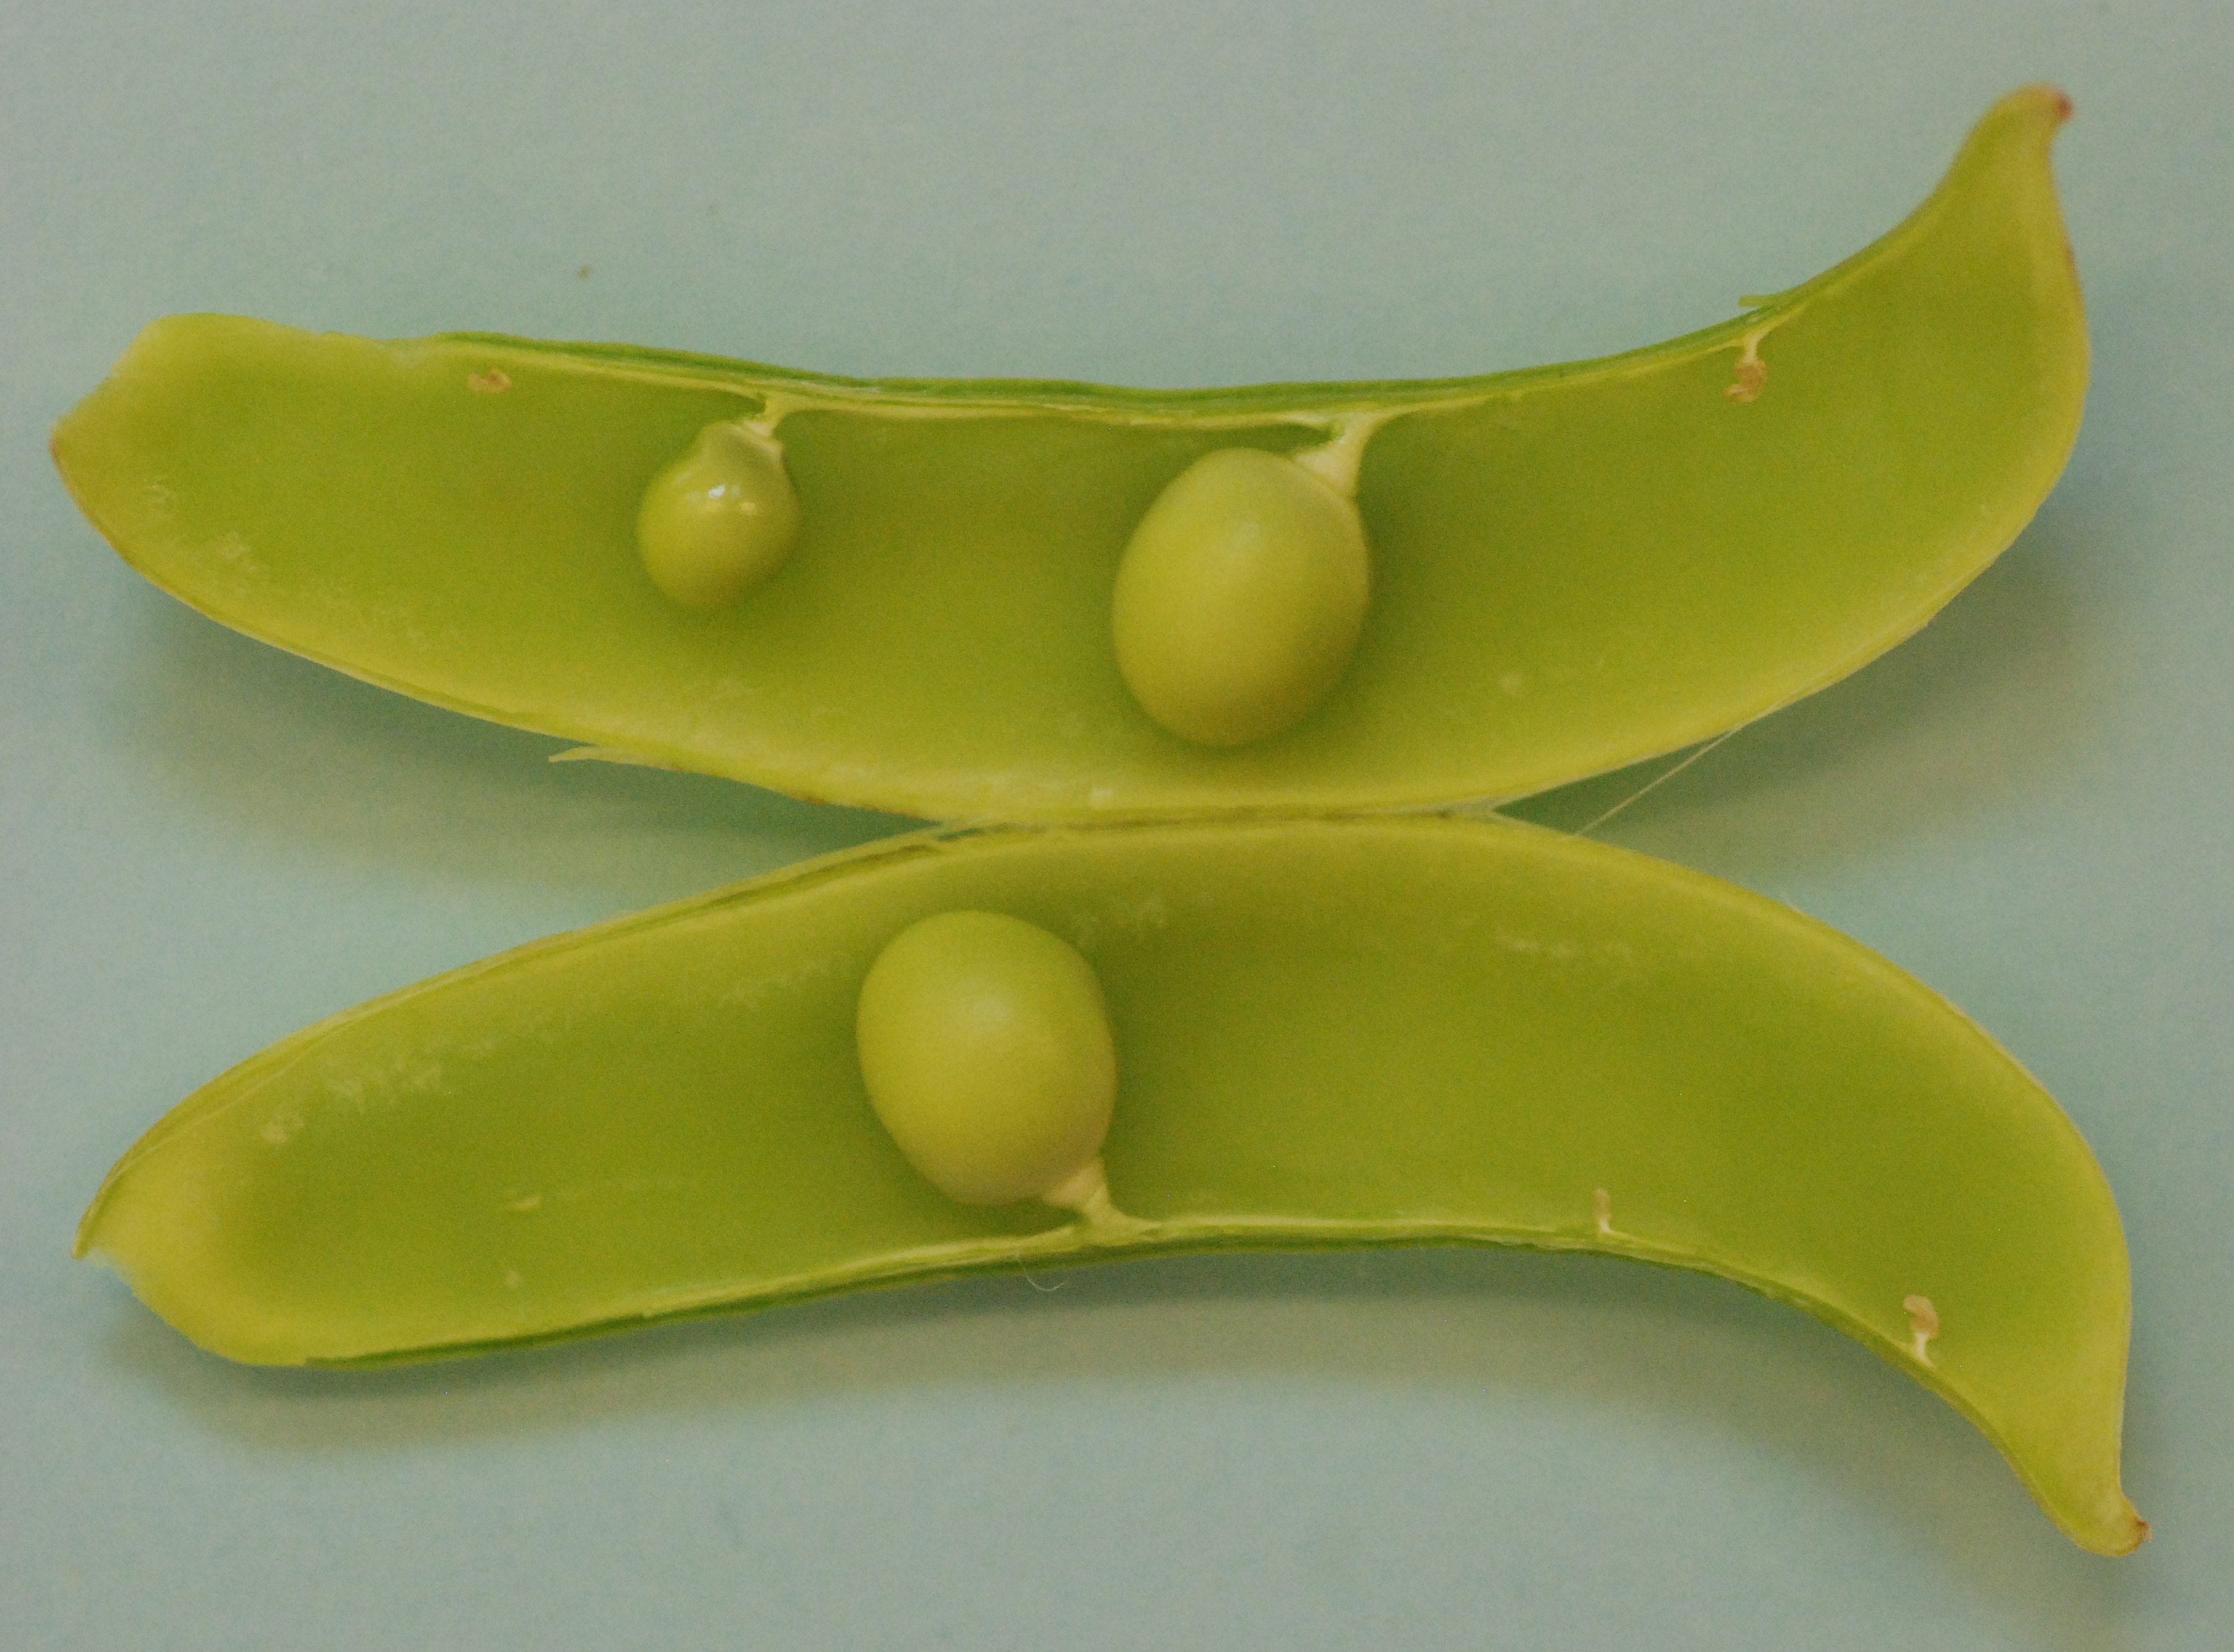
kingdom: Plantae
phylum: Tracheophyta
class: Magnoliopsida
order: Fabales
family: Fabaceae
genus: Lathyrus
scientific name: Lathyrus oleraceus
